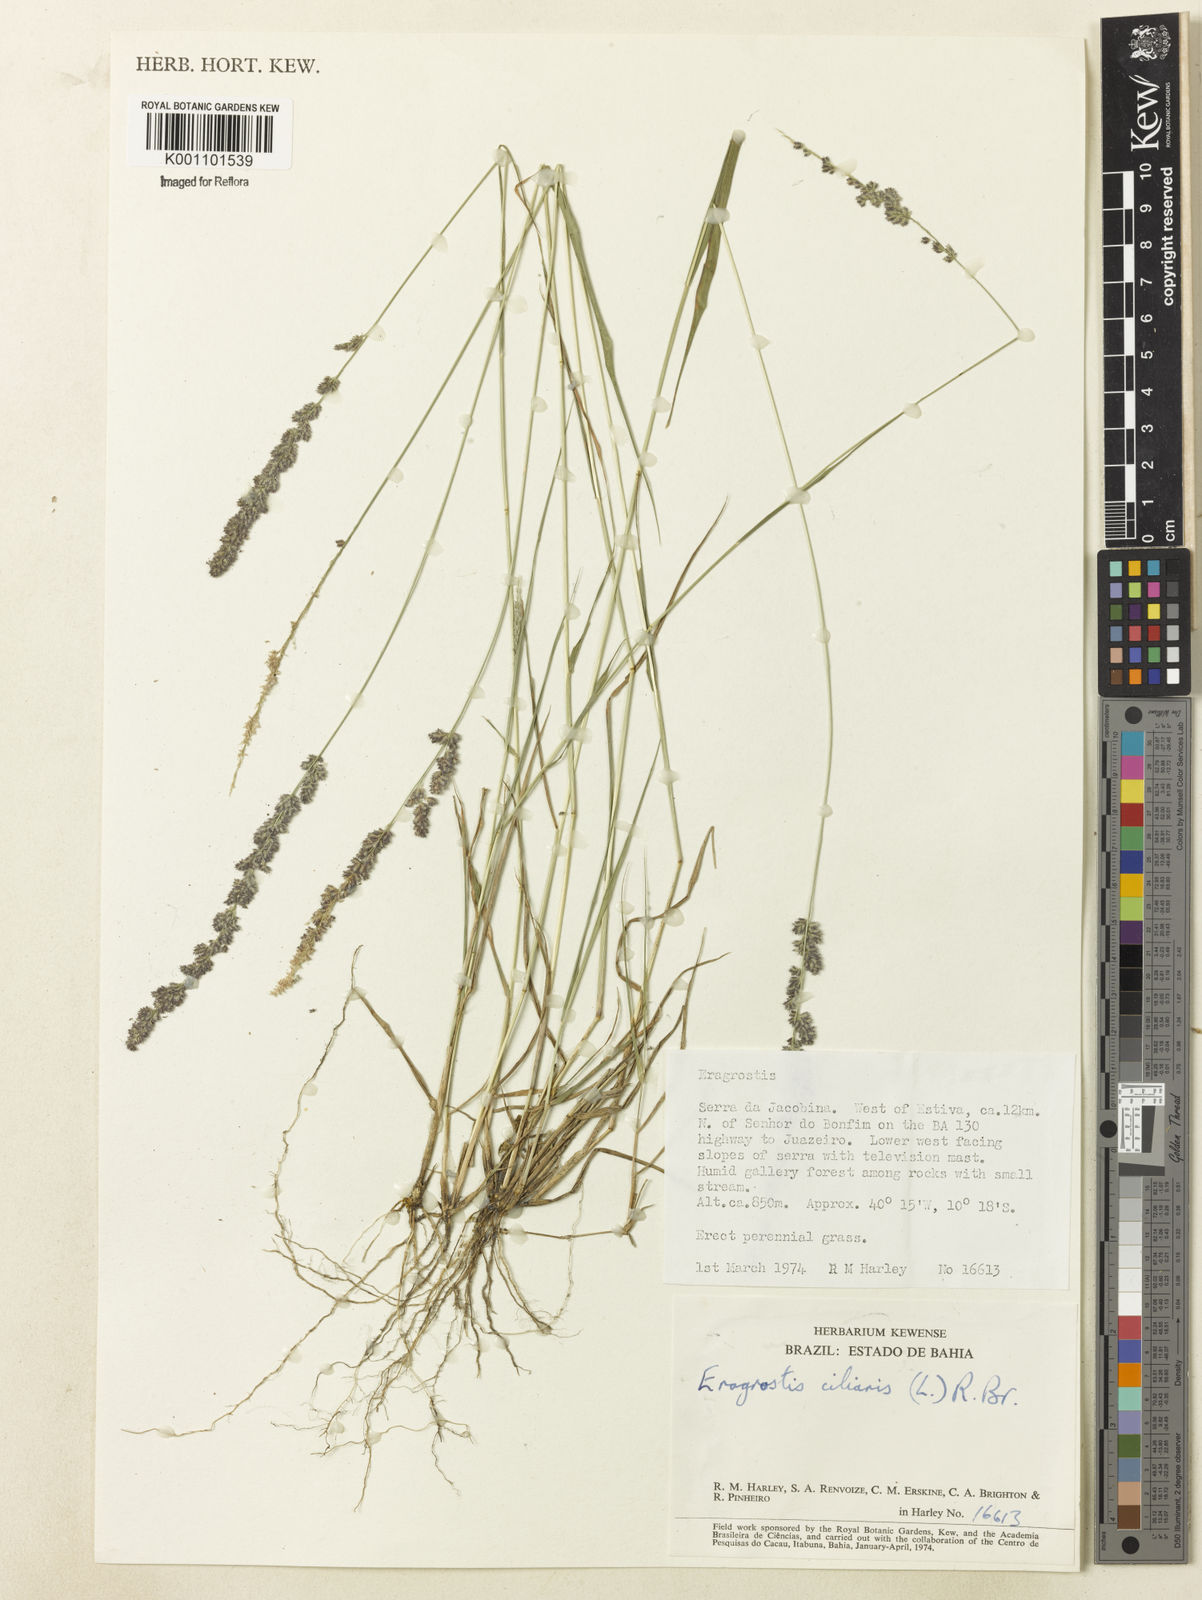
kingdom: Plantae
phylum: Tracheophyta
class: Liliopsida
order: Poales
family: Poaceae
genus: Eragrostis
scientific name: Eragrostis ciliaris
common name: Gophertail lovegrass
